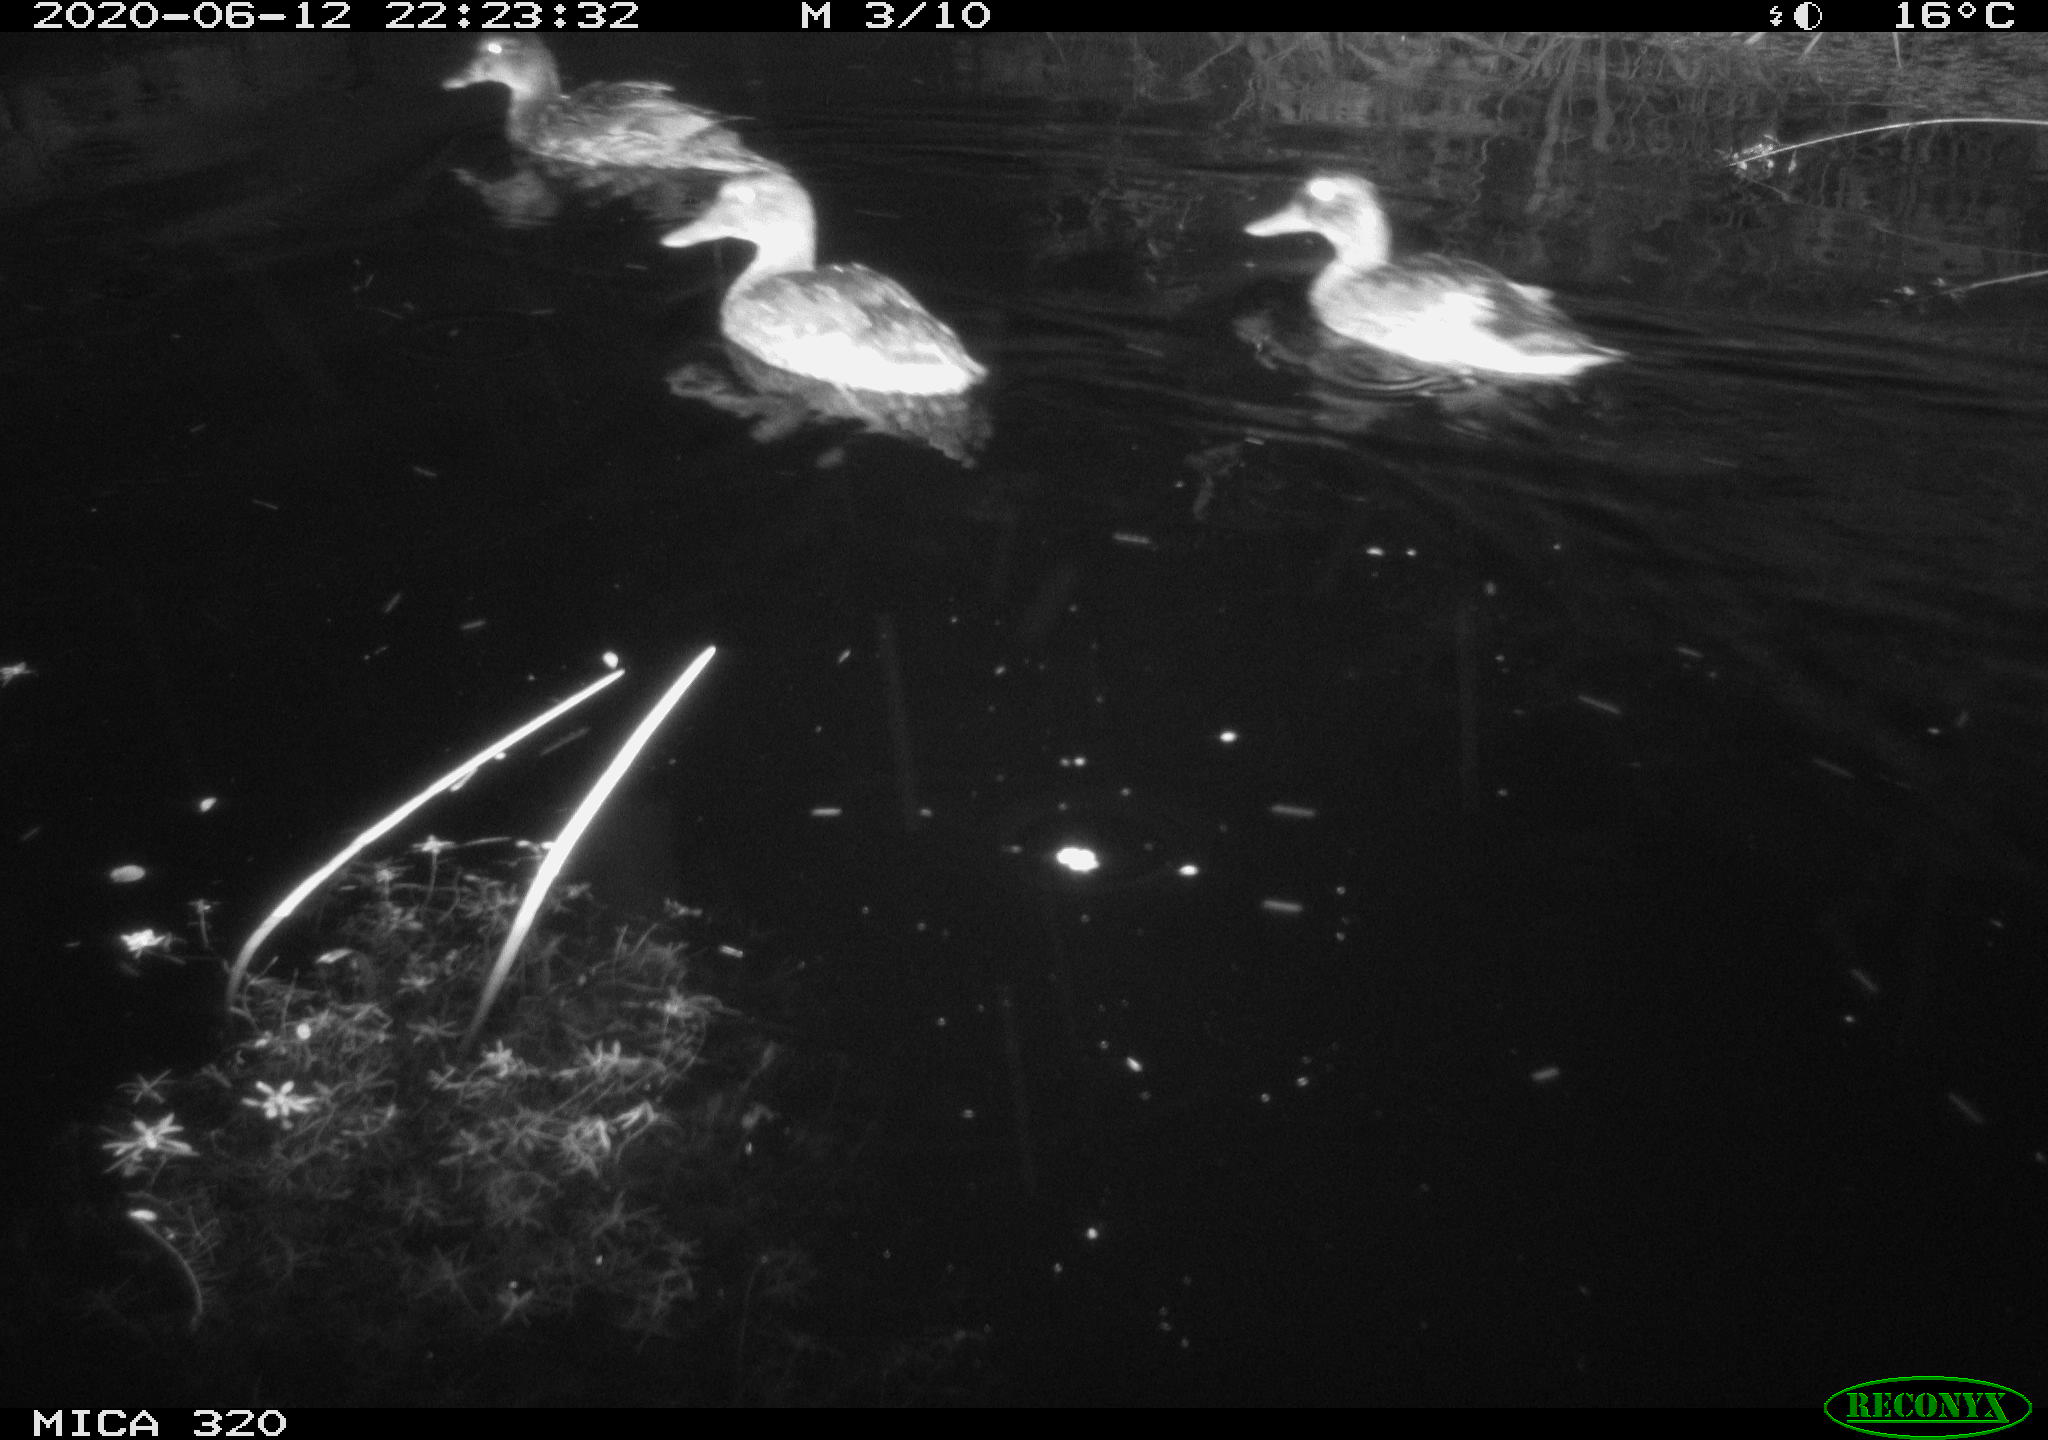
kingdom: Animalia
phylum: Chordata
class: Aves
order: Anseriformes
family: Anatidae
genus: Anas
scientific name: Anas platyrhynchos
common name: Mallard
